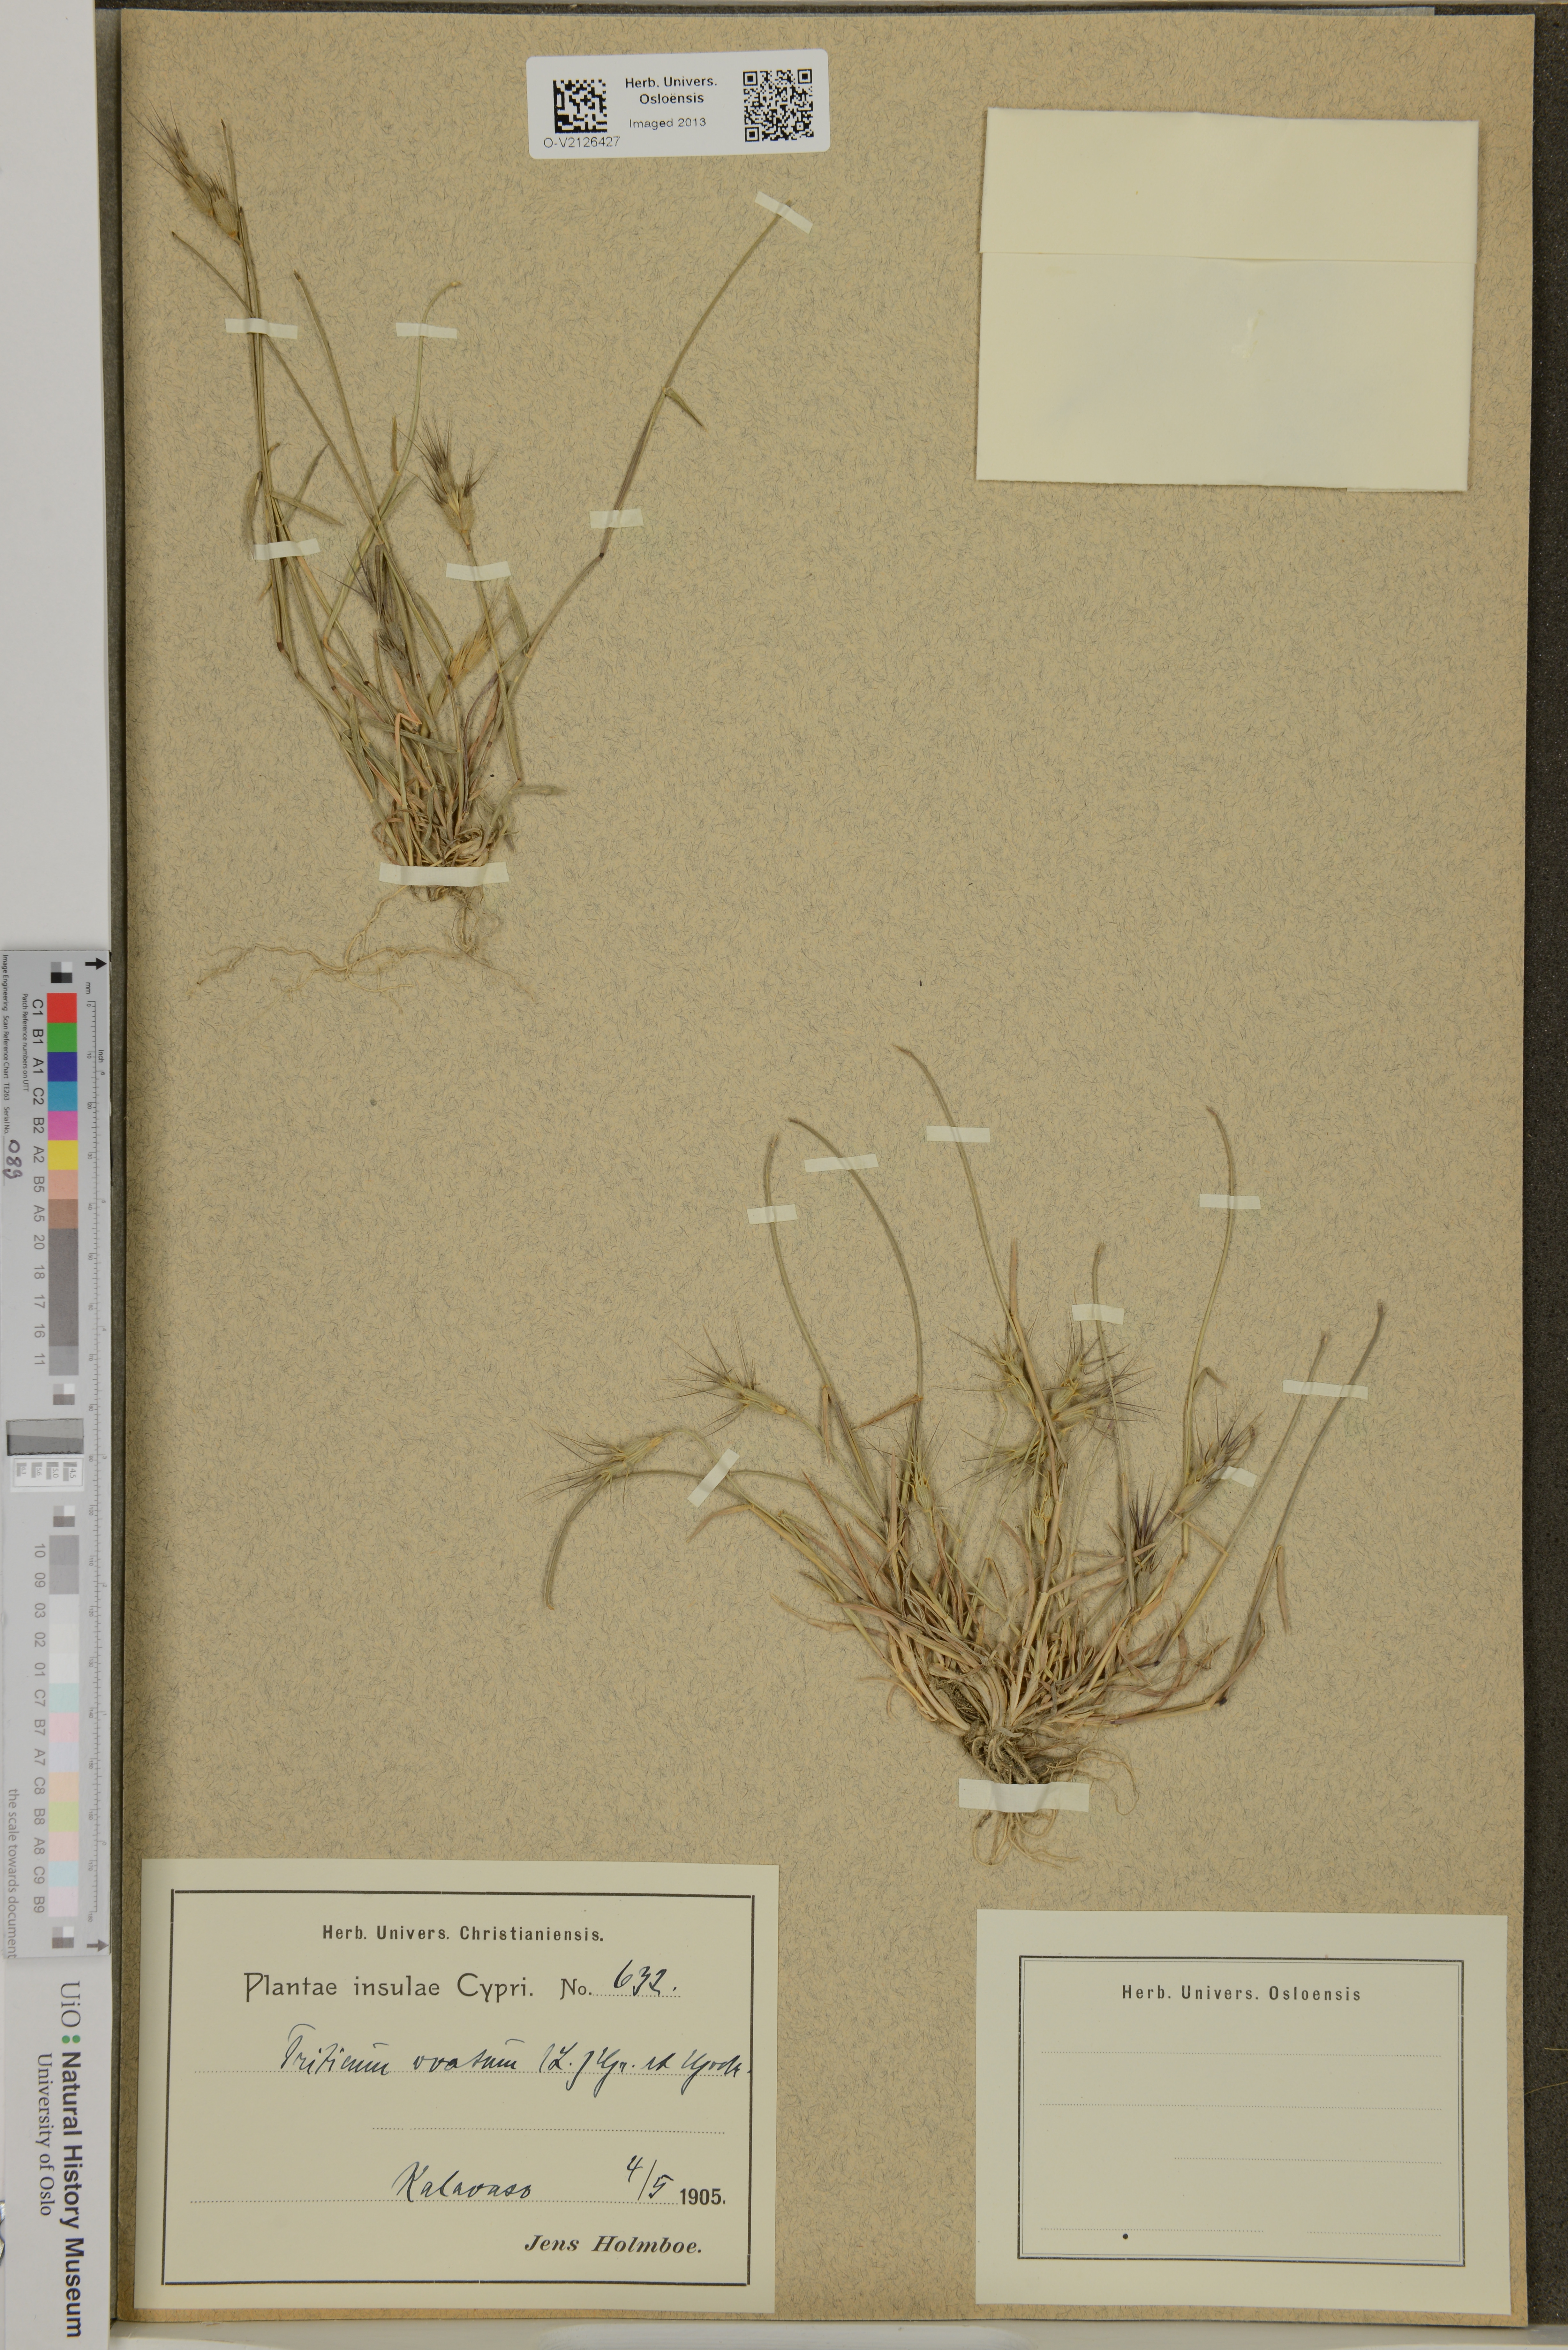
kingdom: Plantae
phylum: Tracheophyta
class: Liliopsida
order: Poales
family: Poaceae
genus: Aegilops
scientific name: Aegilops
